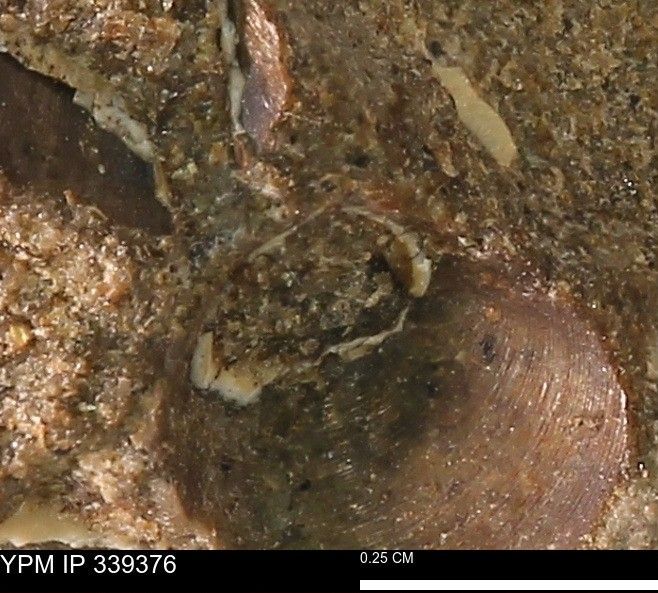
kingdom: Animalia
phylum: Mollusca
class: Bivalvia
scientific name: Bivalvia
